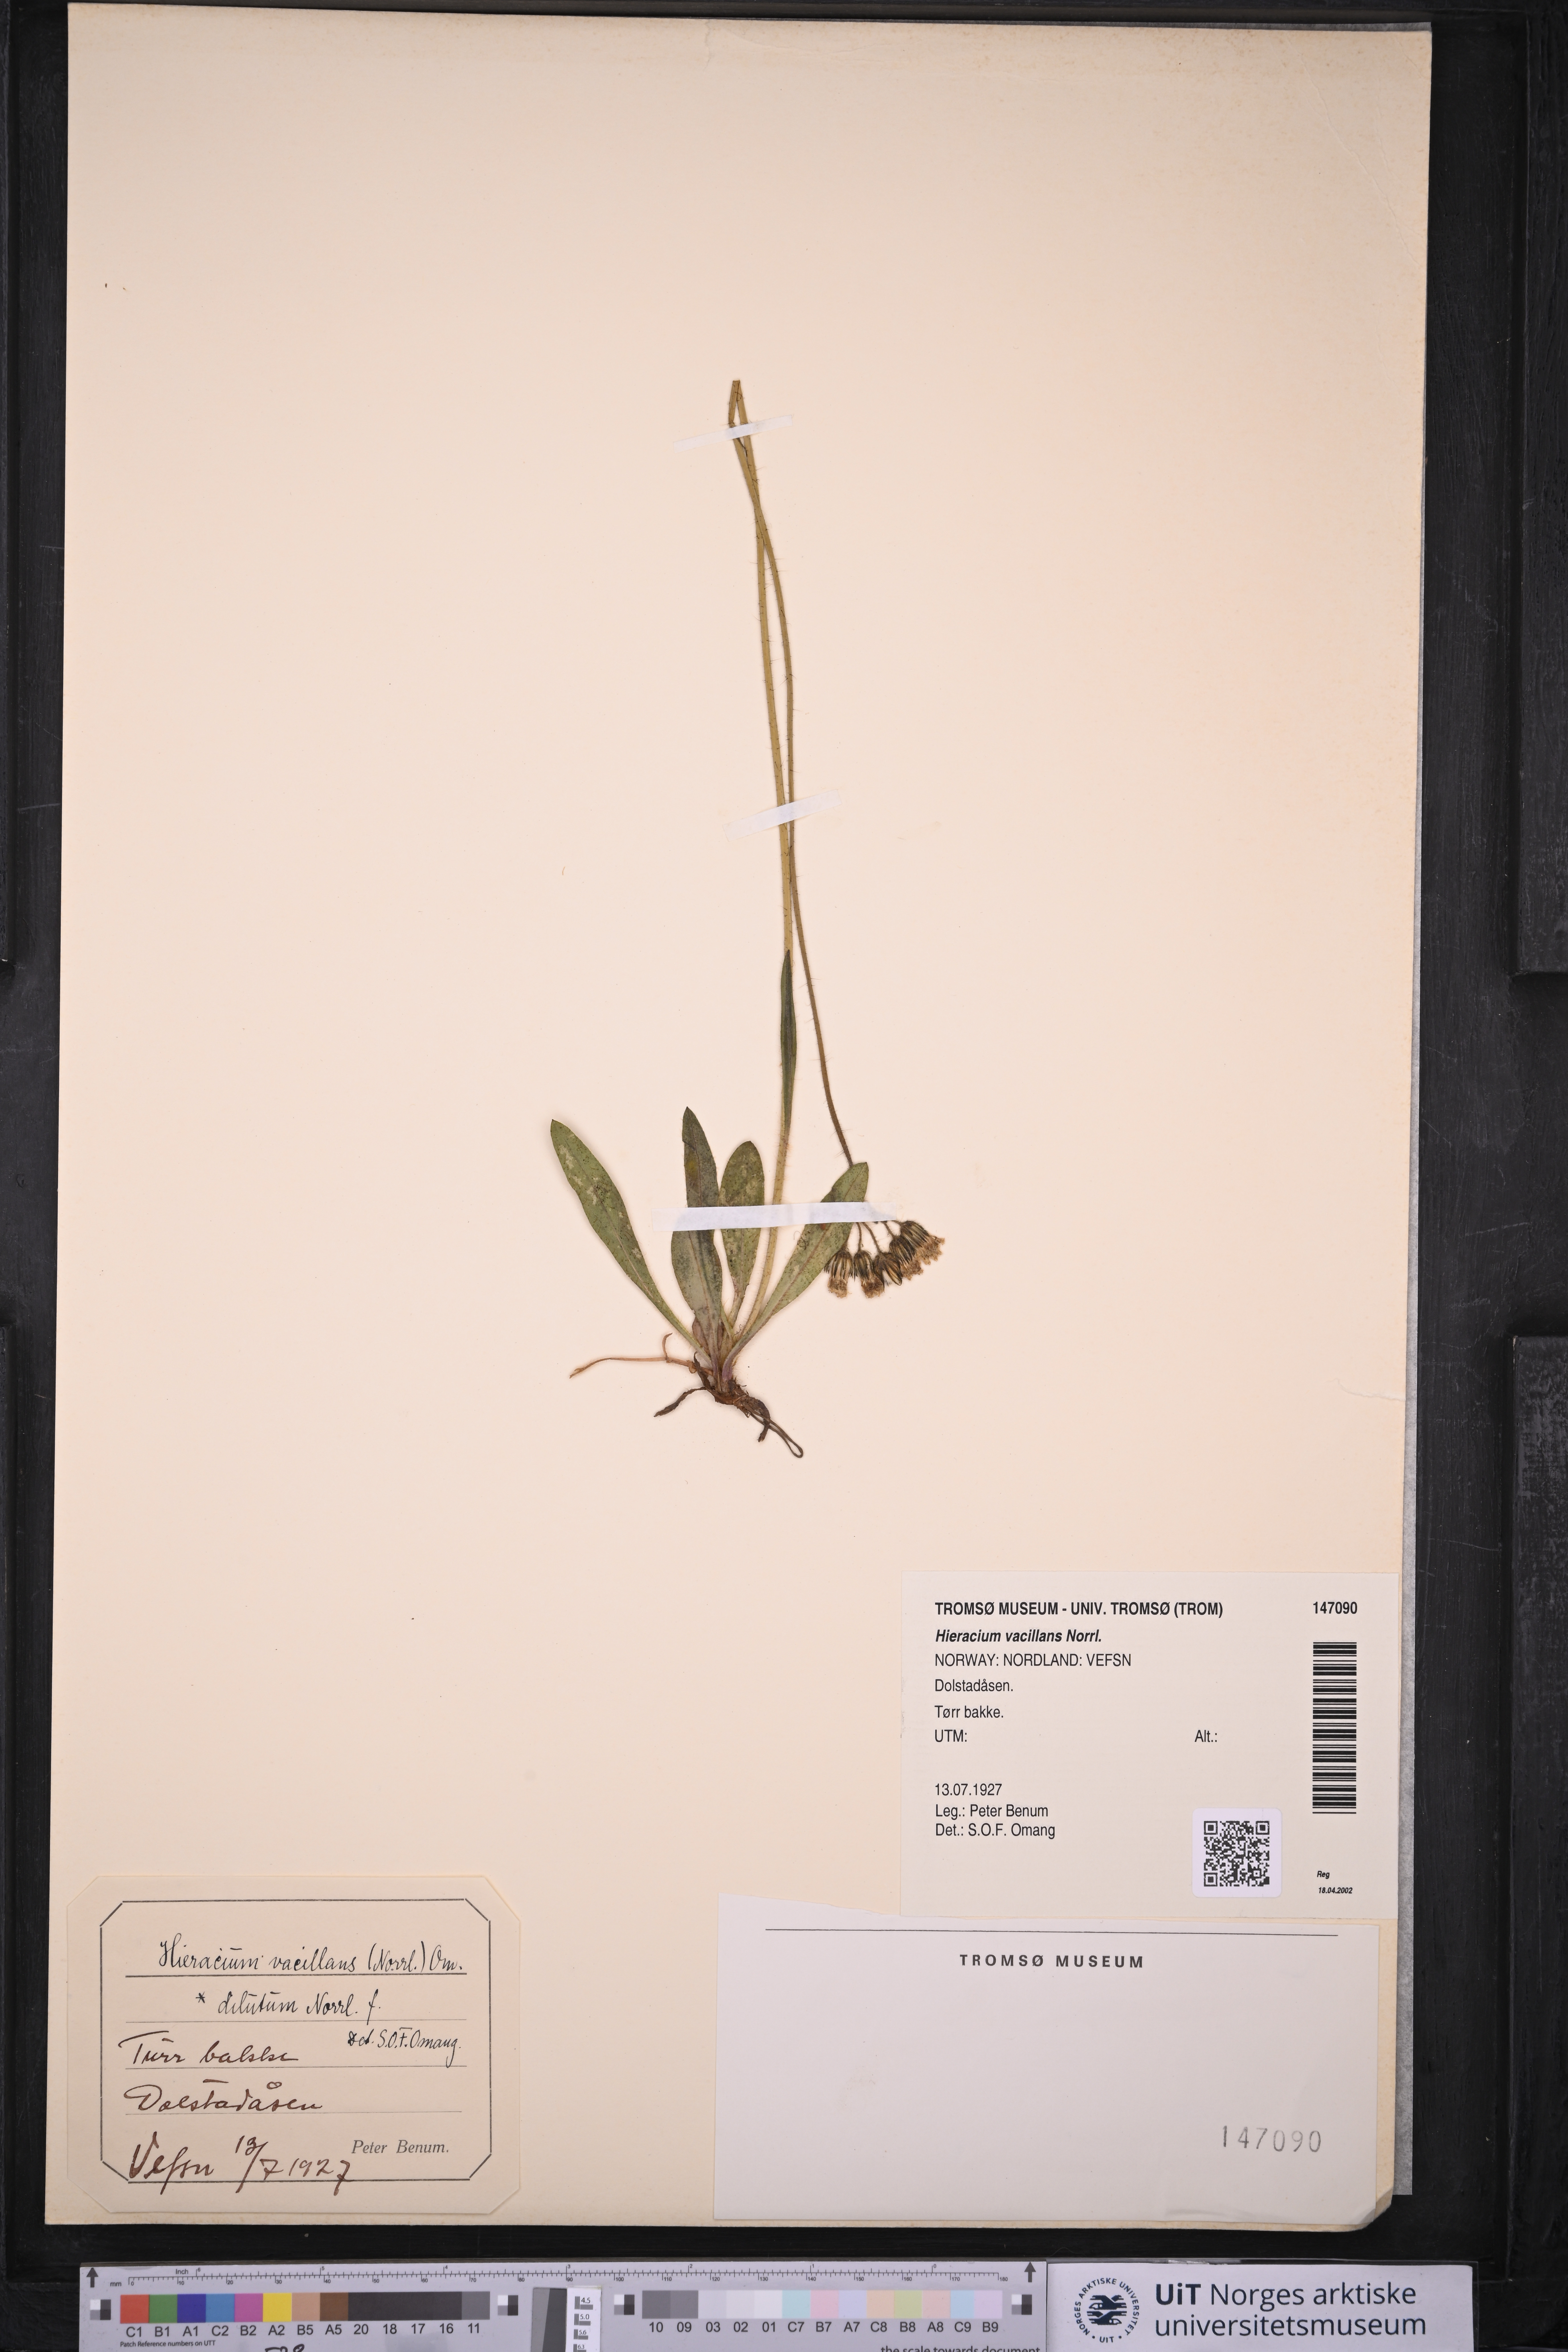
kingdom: Plantae
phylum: Tracheophyta
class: Magnoliopsida
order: Asterales
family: Asteraceae
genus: Pilosella
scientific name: Pilosella glomerata
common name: Queen devil hawkweed
